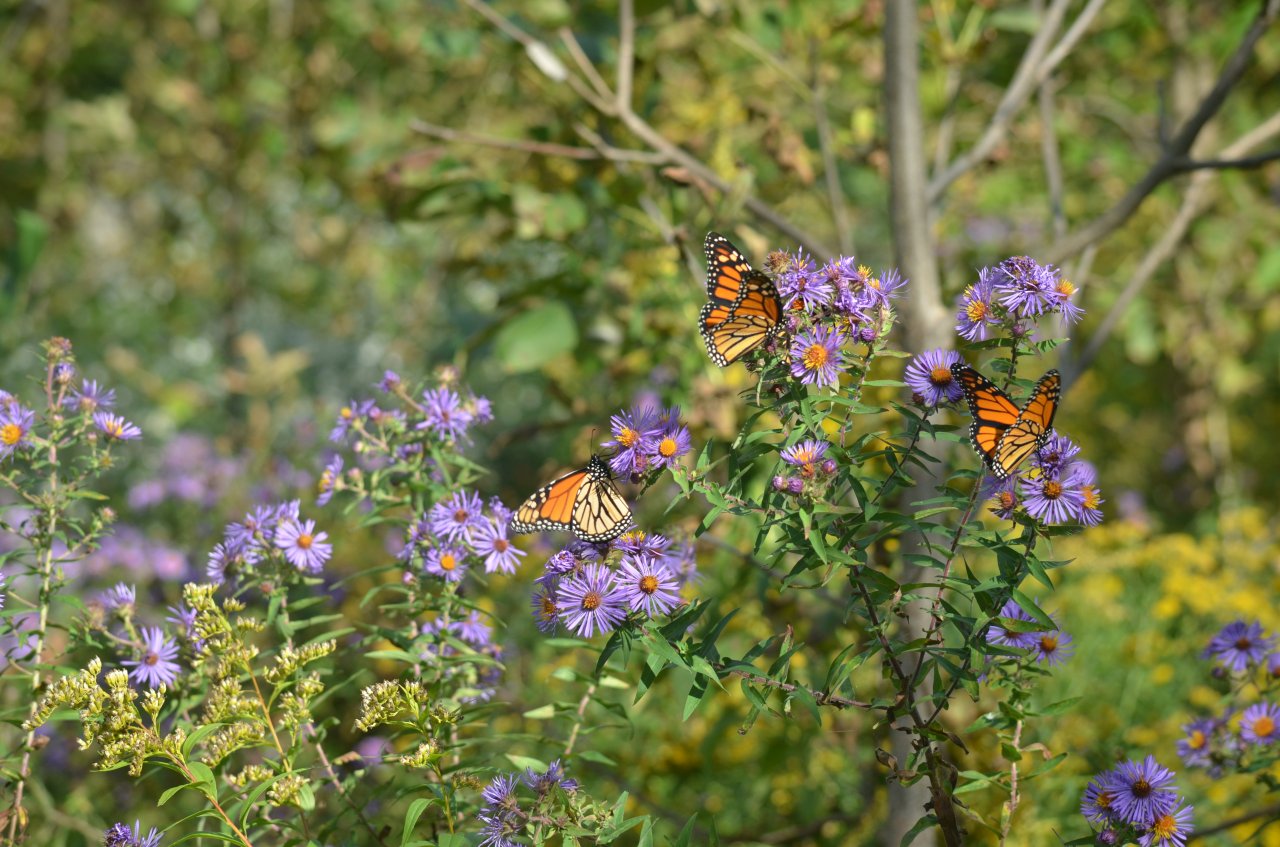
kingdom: Animalia
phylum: Arthropoda
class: Insecta
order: Lepidoptera
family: Nymphalidae
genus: Danaus
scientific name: Danaus plexippus
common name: Monarch
